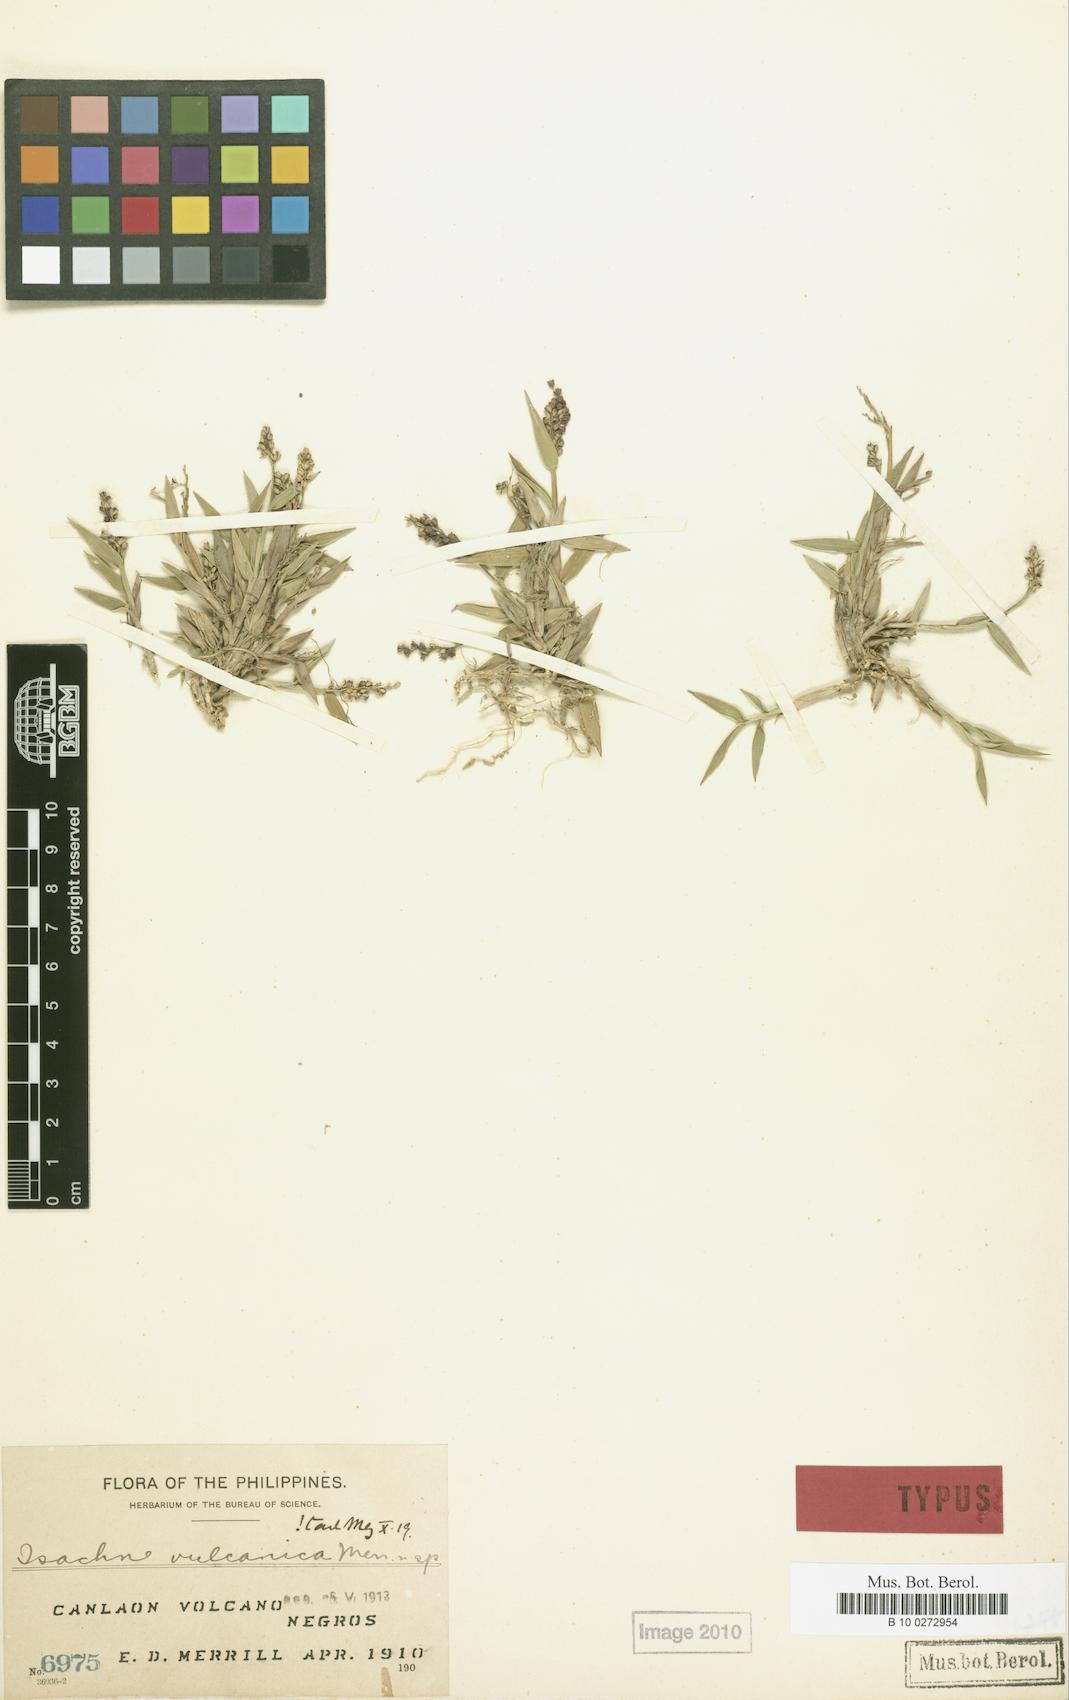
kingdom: Plantae
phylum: Tracheophyta
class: Liliopsida
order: Poales
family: Poaceae
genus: Isachne
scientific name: Isachne vulcanica
